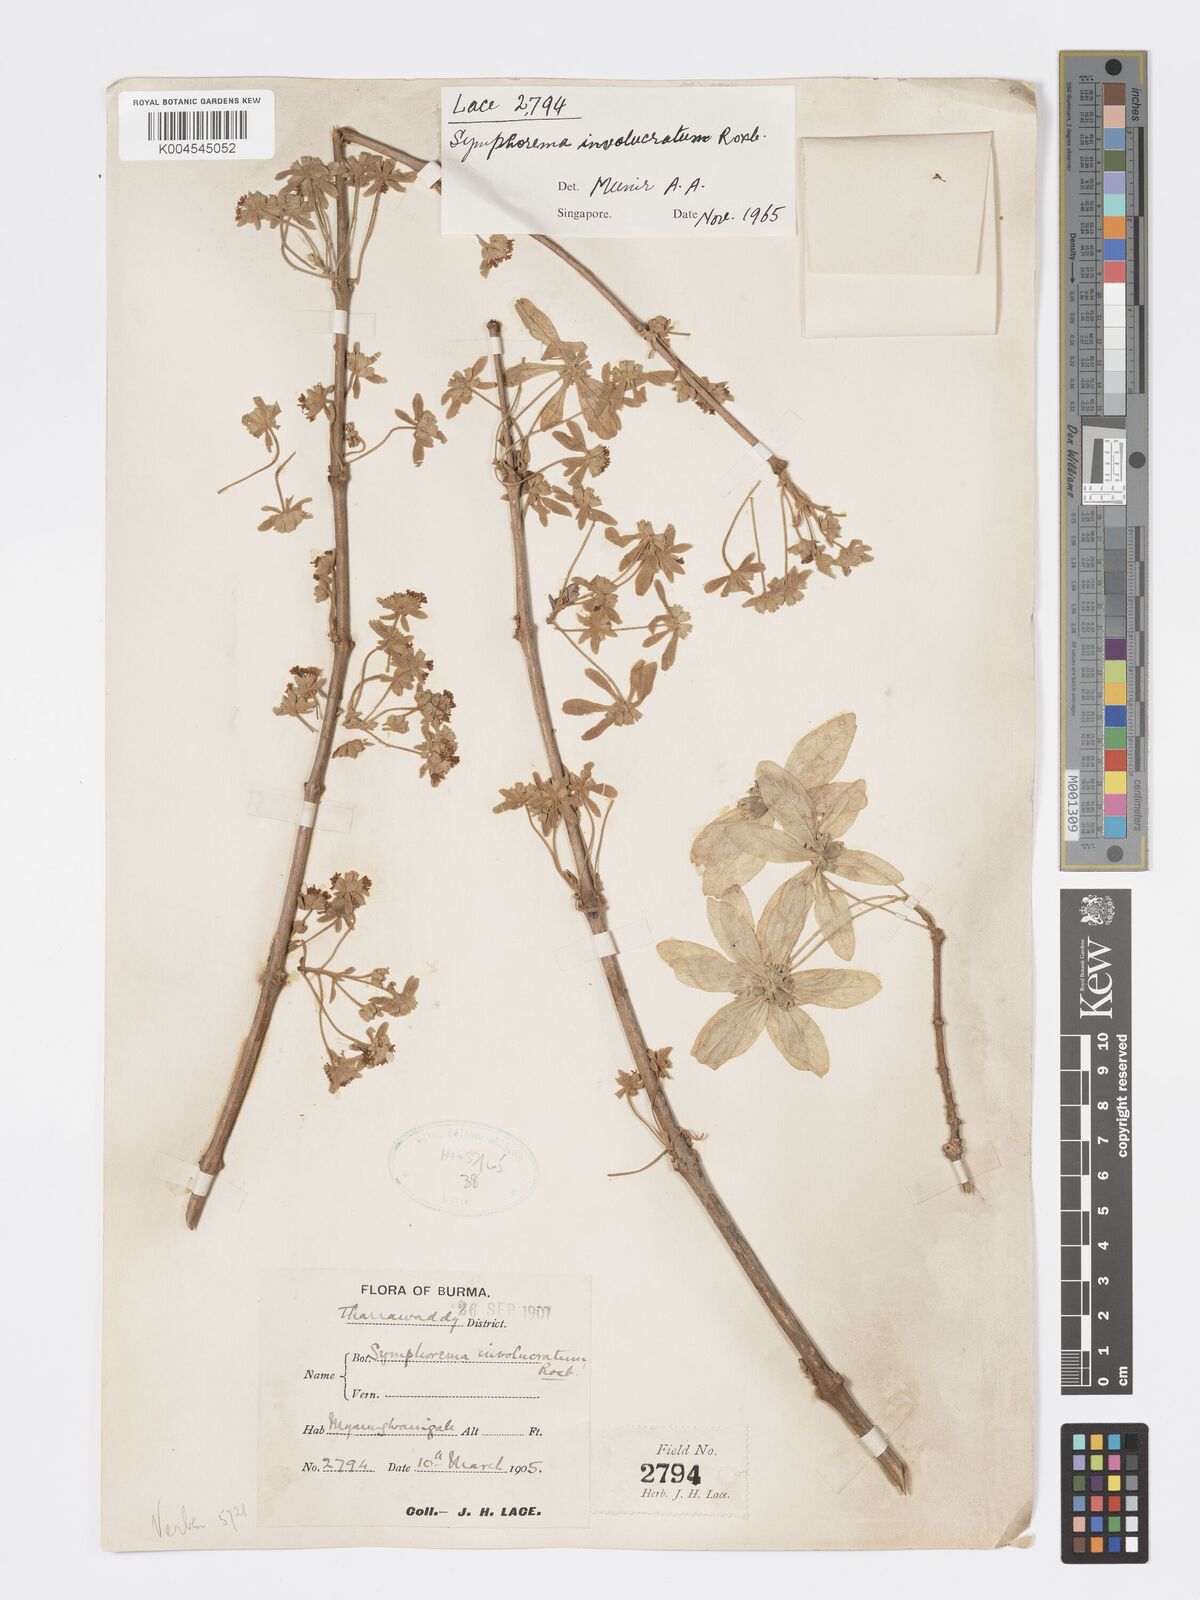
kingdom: Plantae
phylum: Tracheophyta
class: Magnoliopsida
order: Lamiales
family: Lamiaceae
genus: Symphorema
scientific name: Symphorema involucratum
